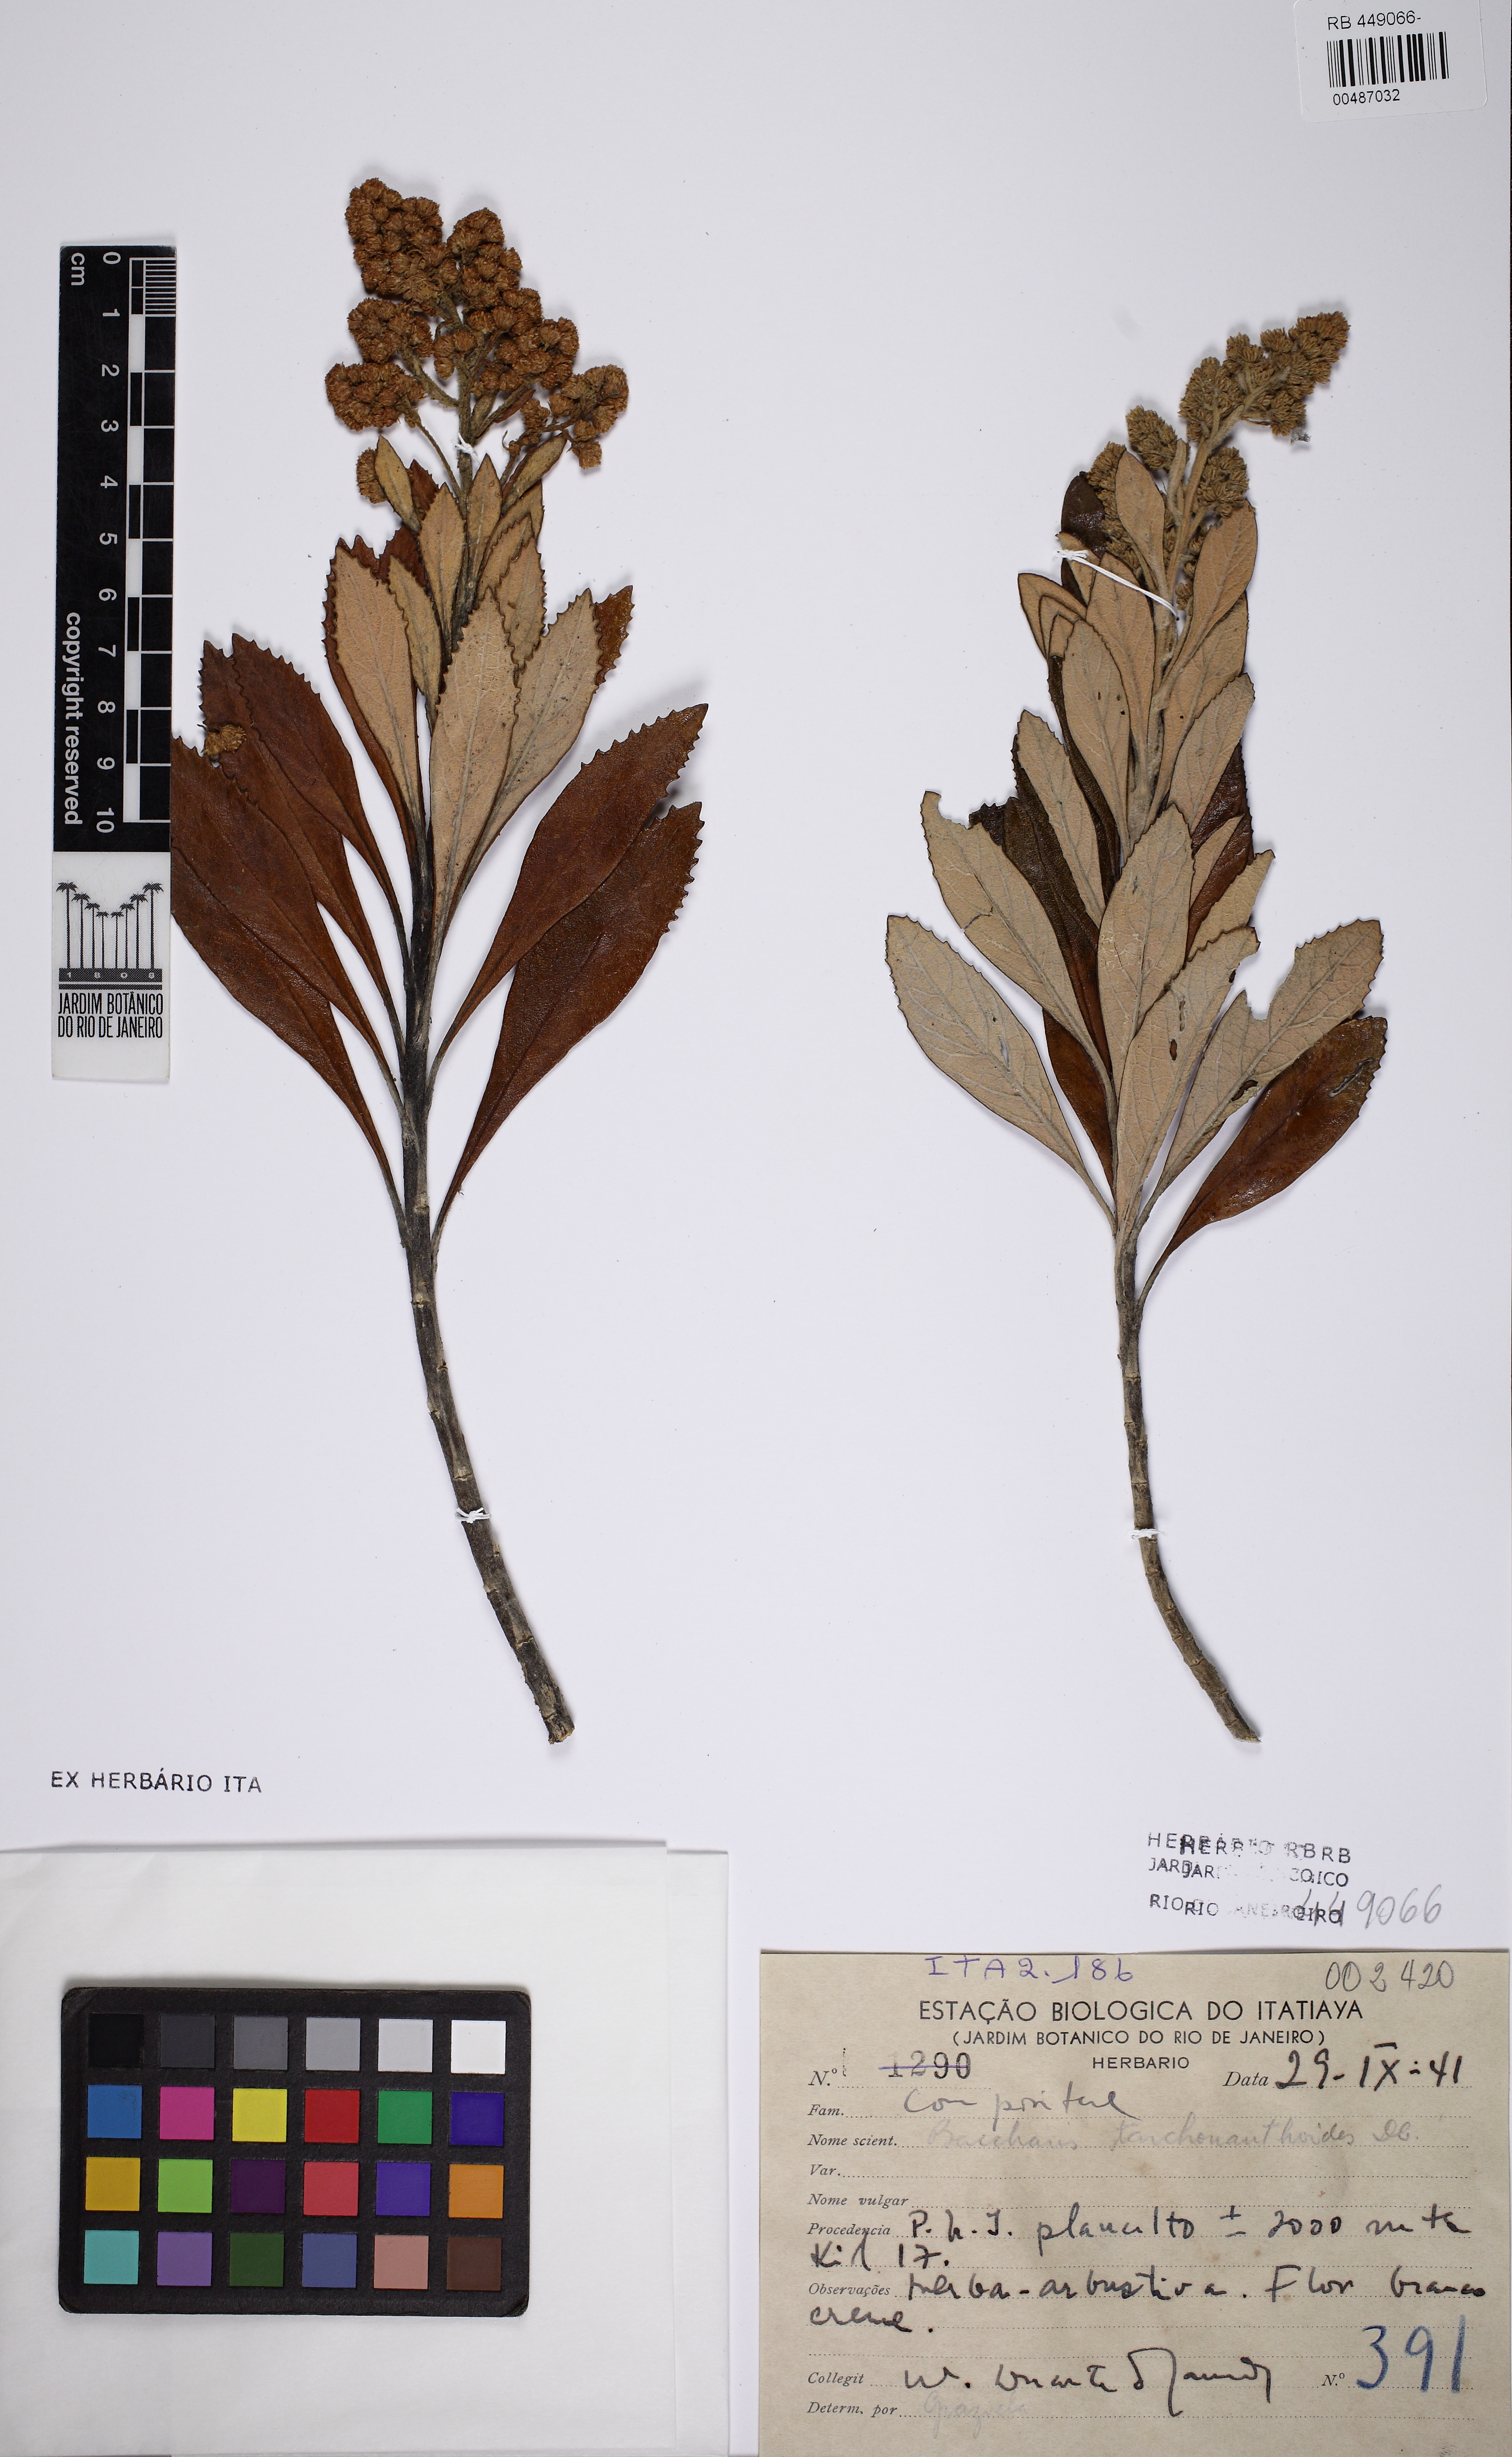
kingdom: Plantae
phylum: Tracheophyta
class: Magnoliopsida
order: Asterales
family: Asteraceae
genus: Baccharis
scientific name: Baccharis tarchonanthoides
